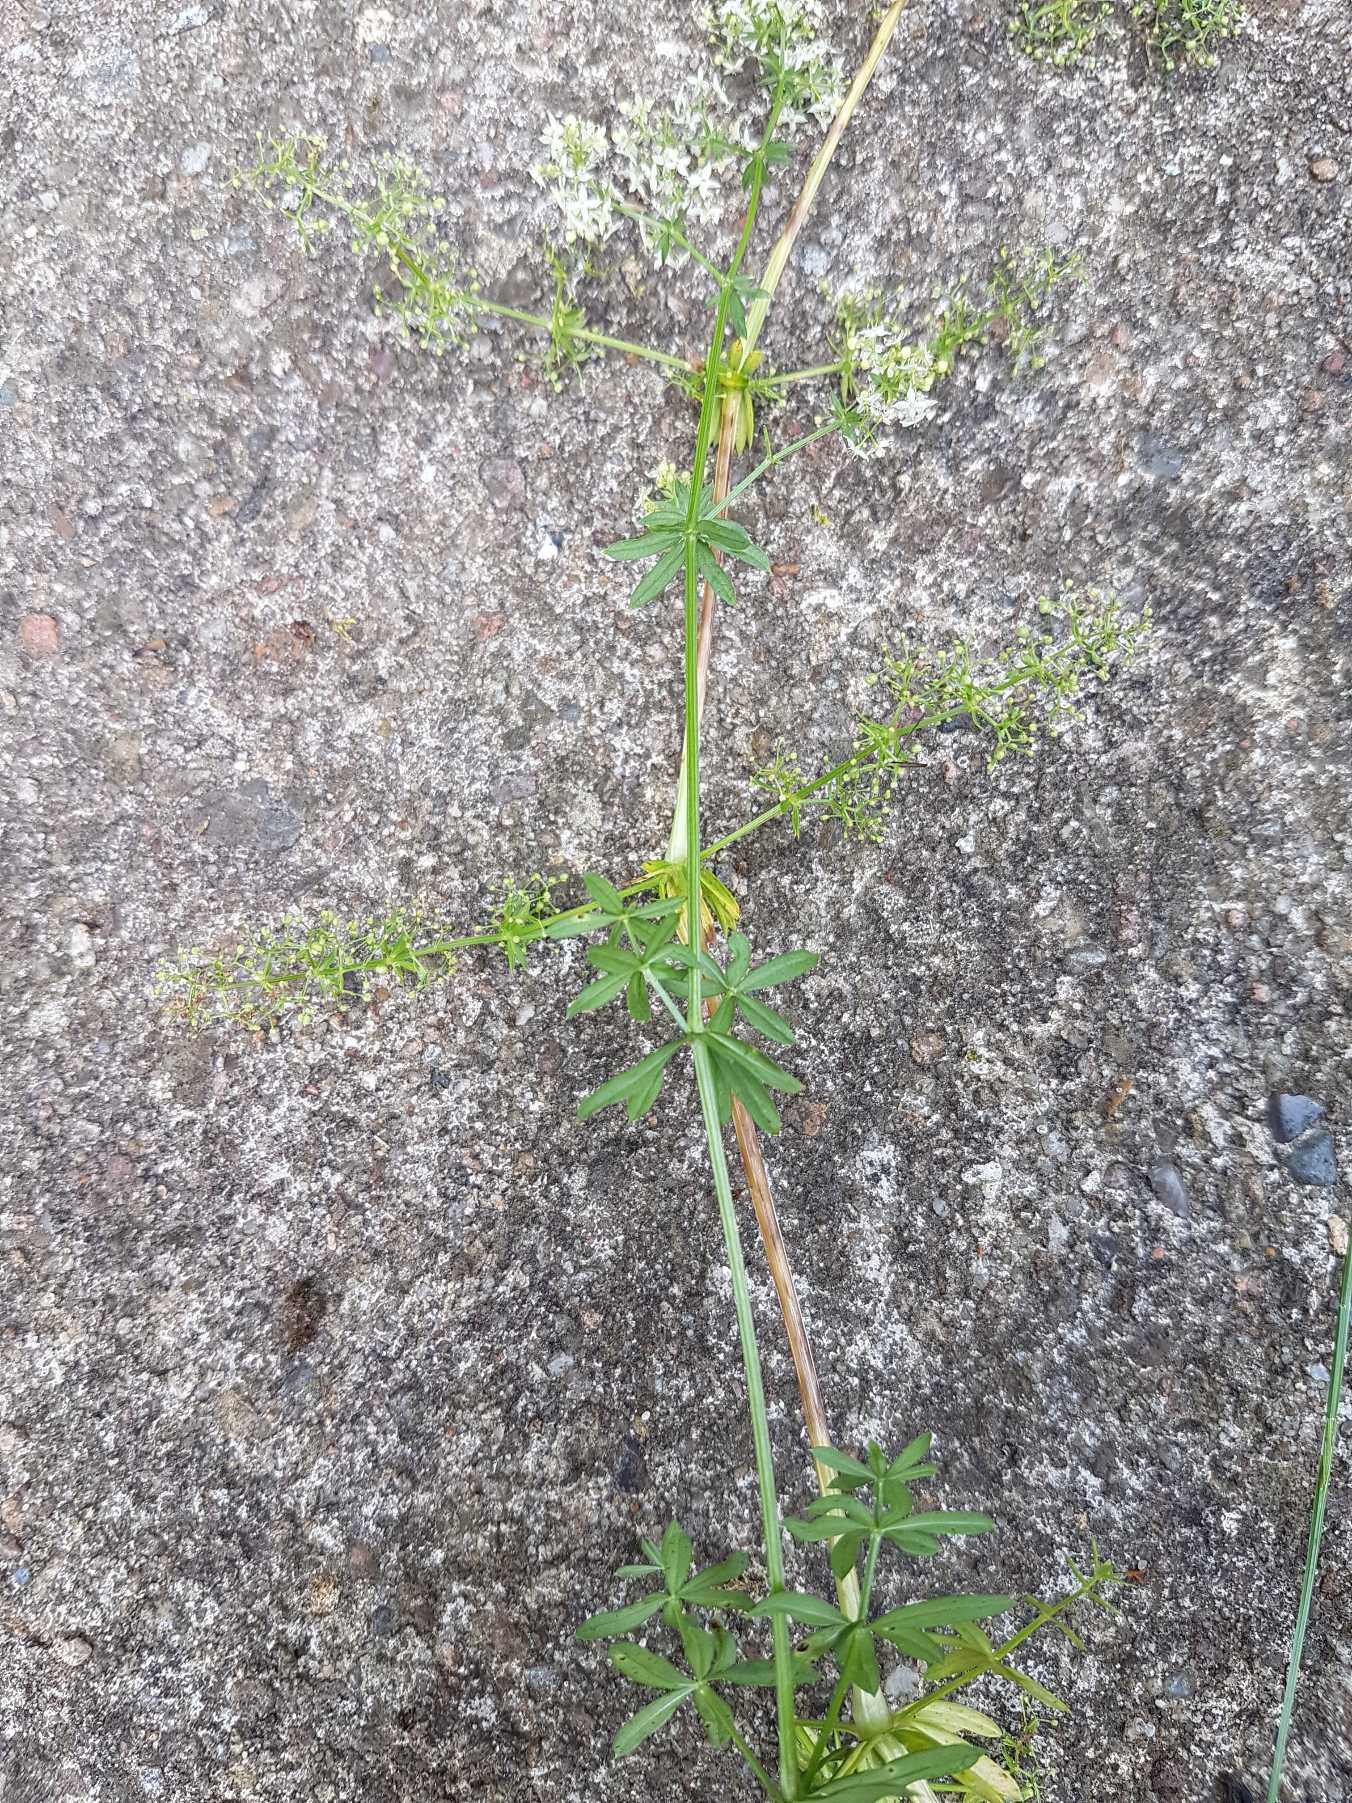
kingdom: Plantae
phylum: Tracheophyta
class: Magnoliopsida
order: Gentianales
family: Rubiaceae
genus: Galium
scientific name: Galium mollugo
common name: Hvid snerre
